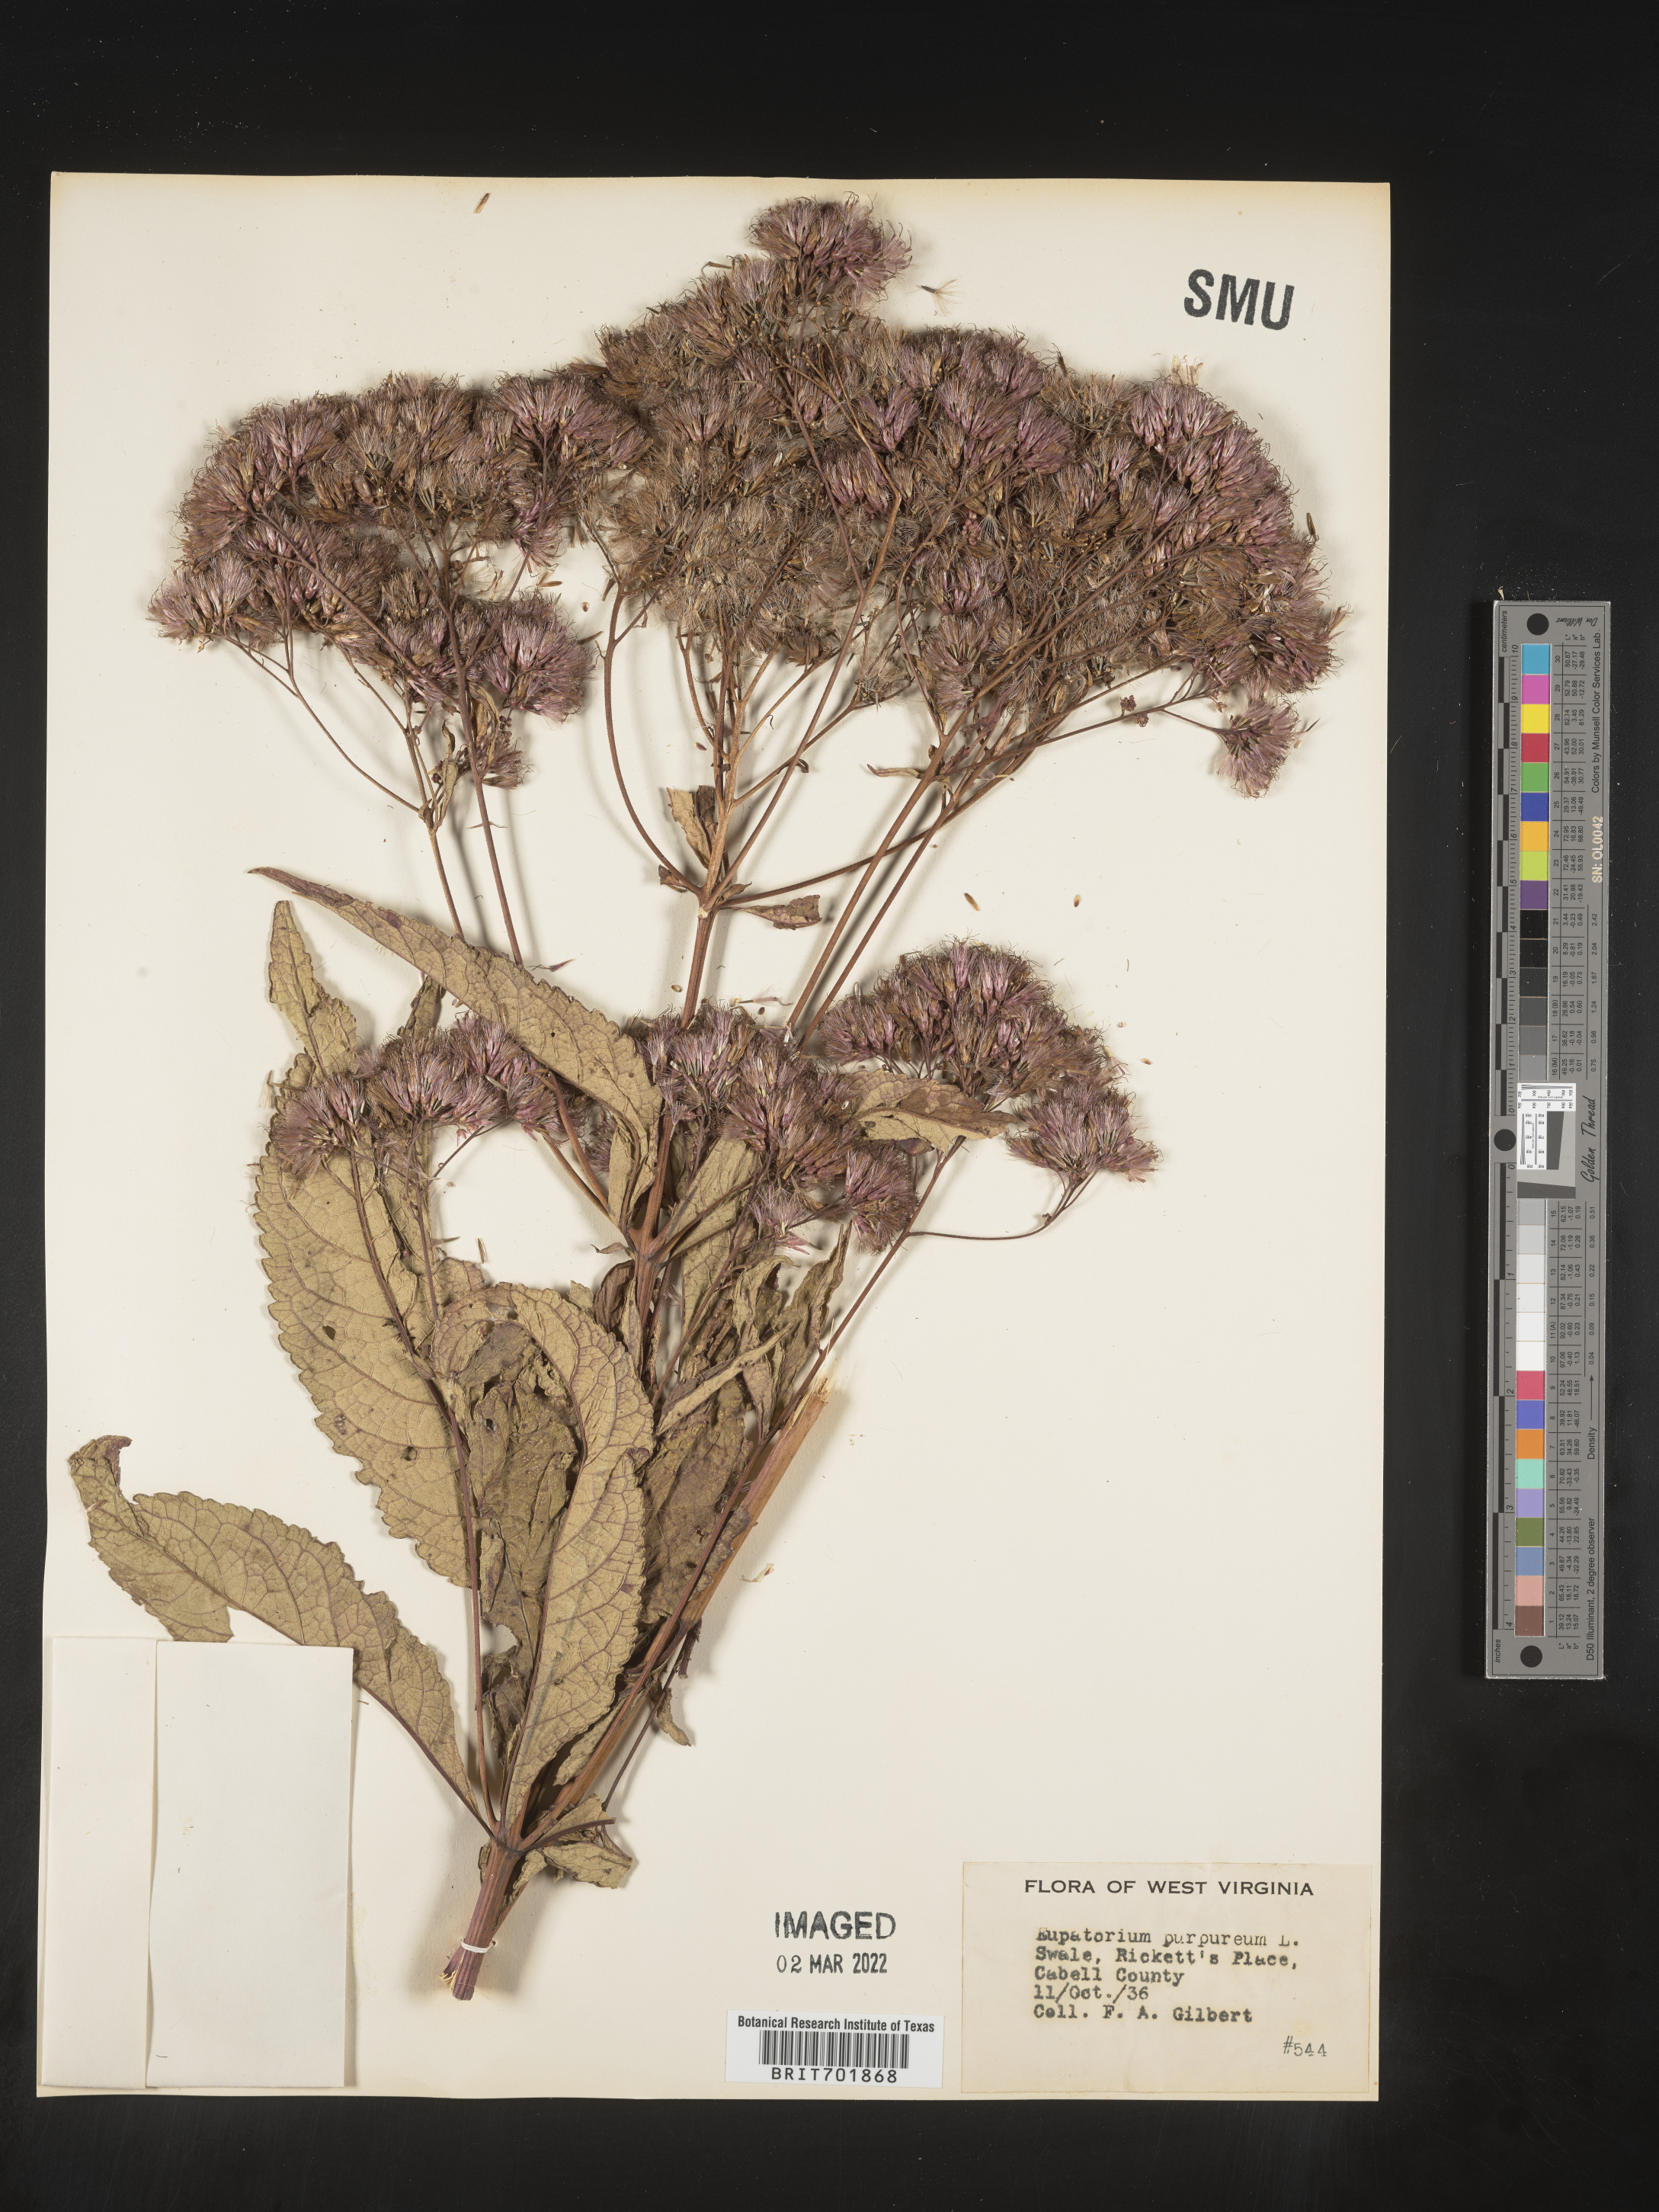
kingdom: Plantae
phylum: Tracheophyta
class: Magnoliopsida
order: Asterales
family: Asteraceae
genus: Eupatorium
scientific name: Eupatorium quaternum
